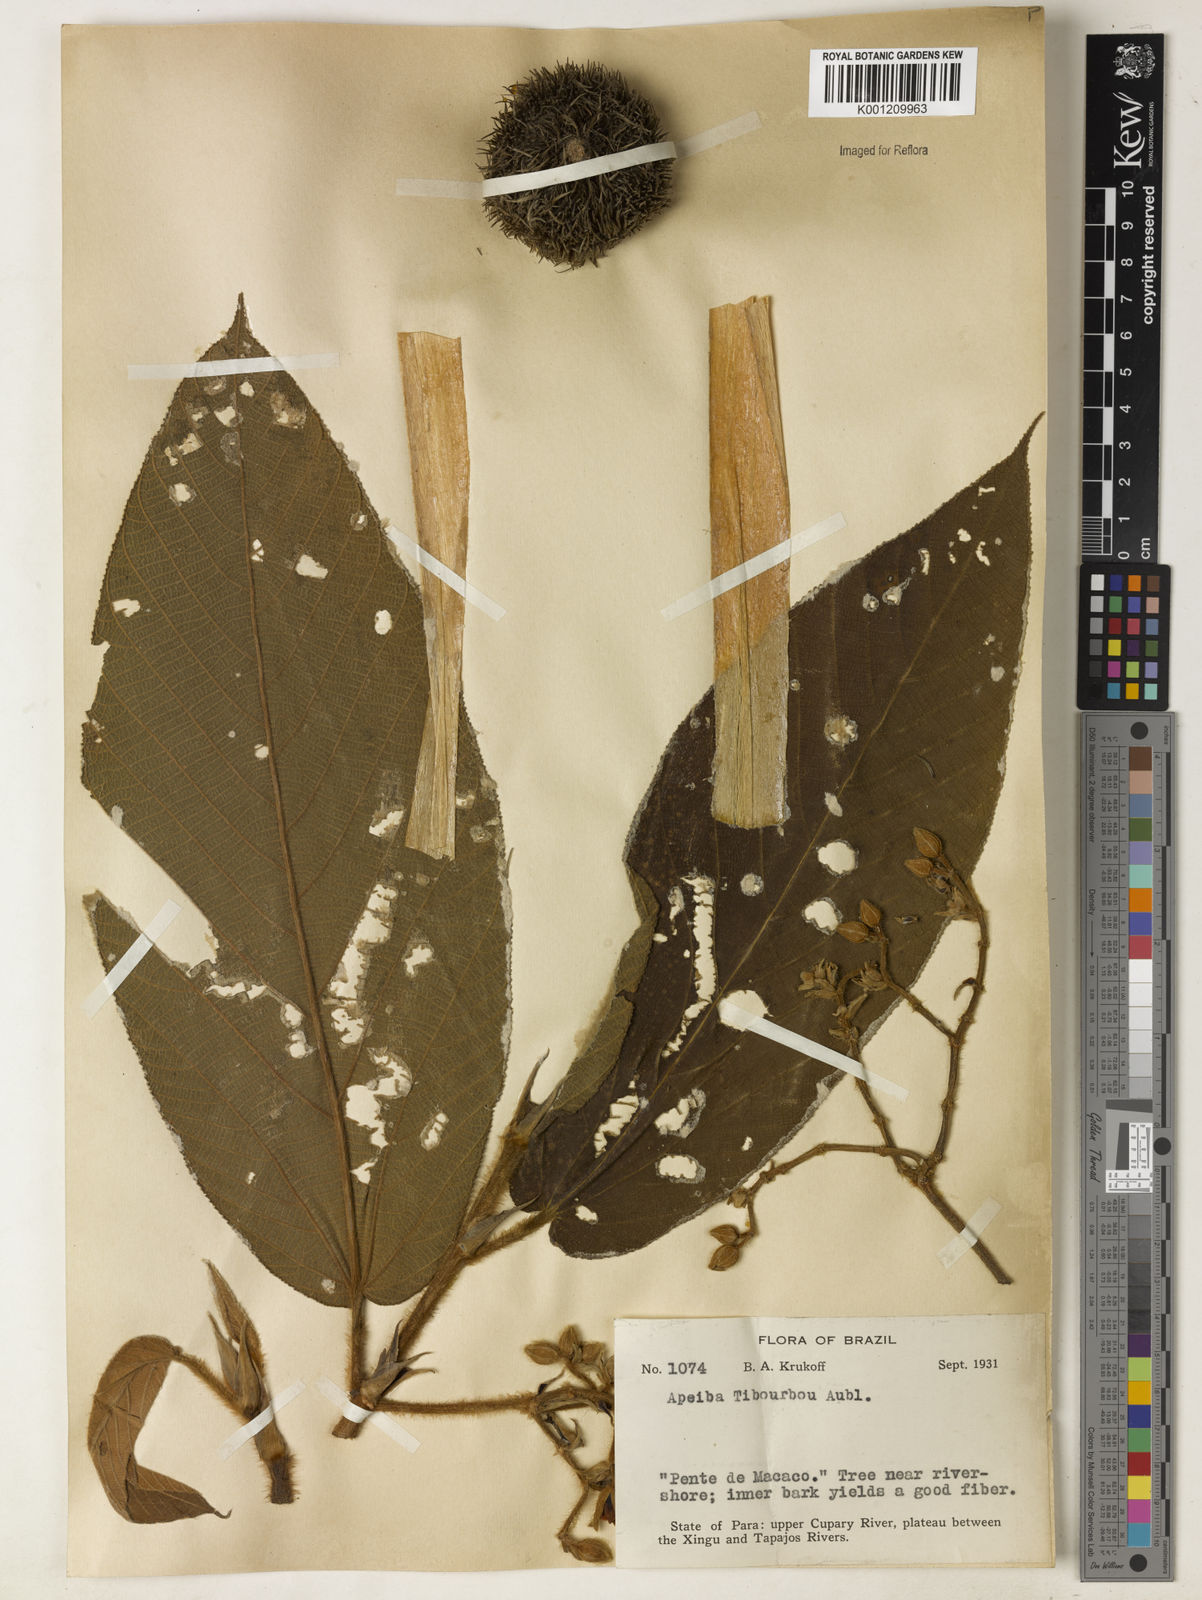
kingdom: Plantae
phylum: Tracheophyta
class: Magnoliopsida
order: Malvales
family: Malvaceae
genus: Apeiba
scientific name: Apeiba tibourbou
